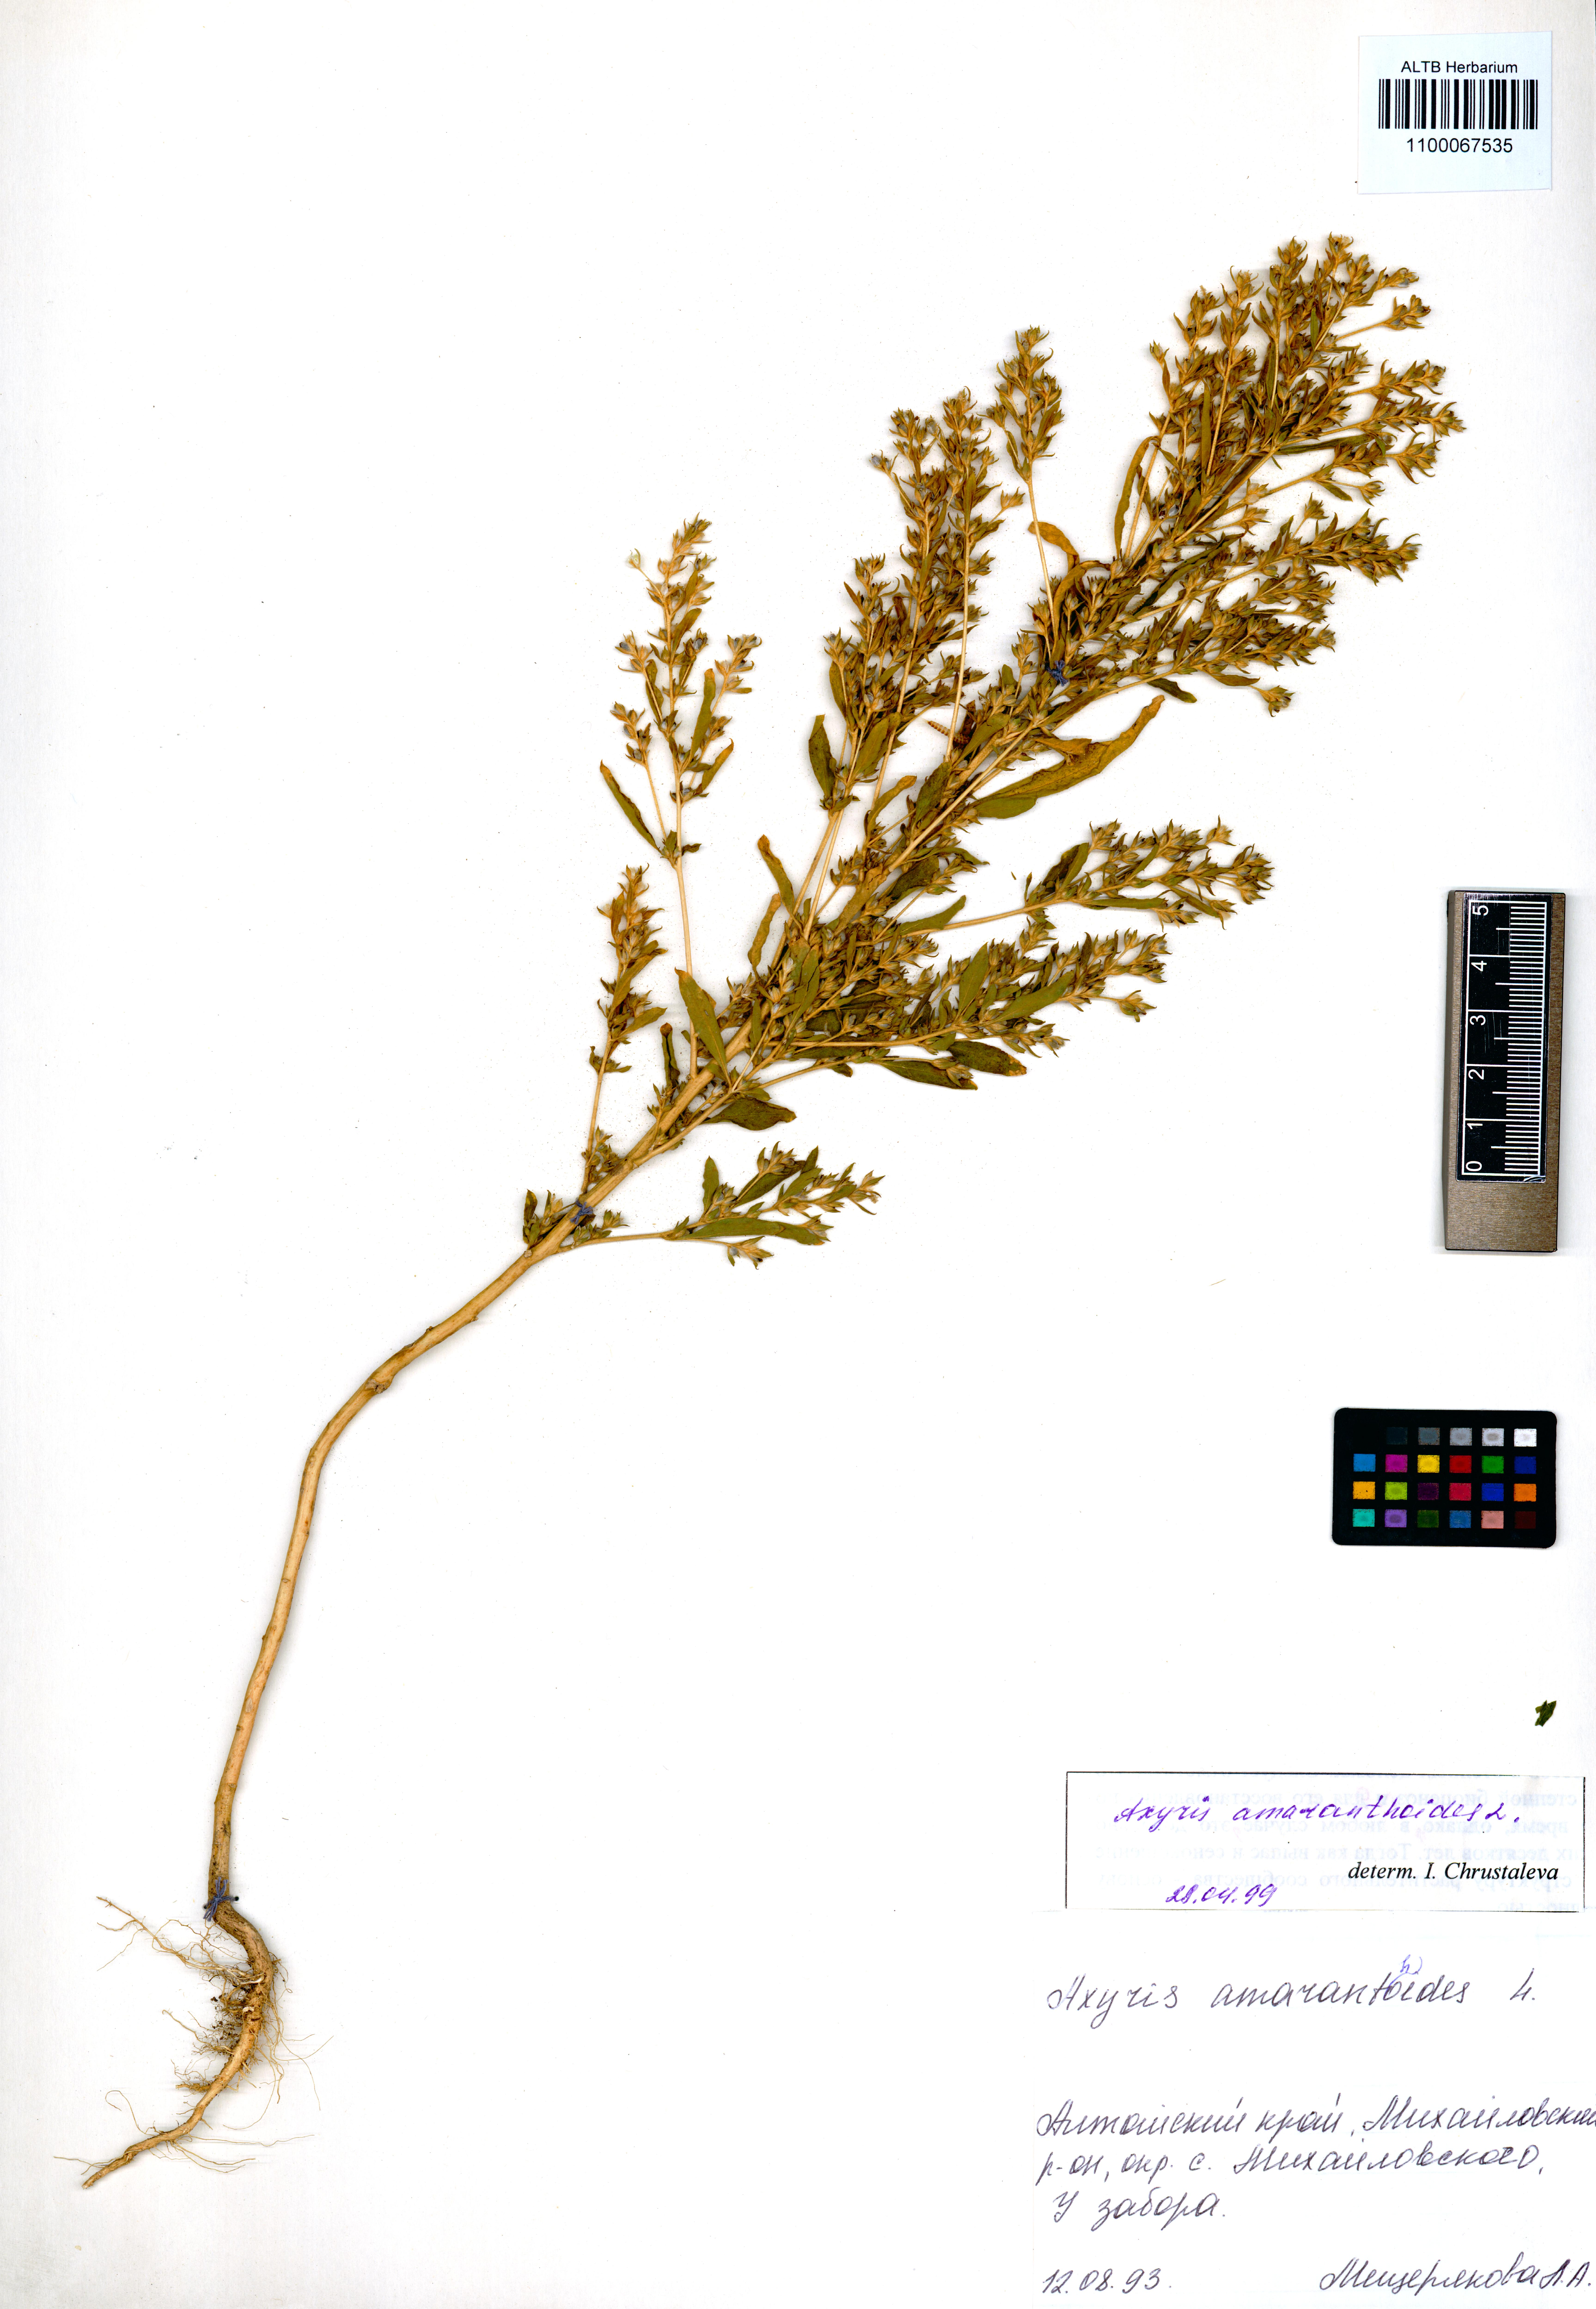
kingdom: Plantae
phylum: Tracheophyta
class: Magnoliopsida
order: Caryophyllales
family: Amaranthaceae
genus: Axyris
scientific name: Axyris amaranthoides
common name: Russian pigweed
